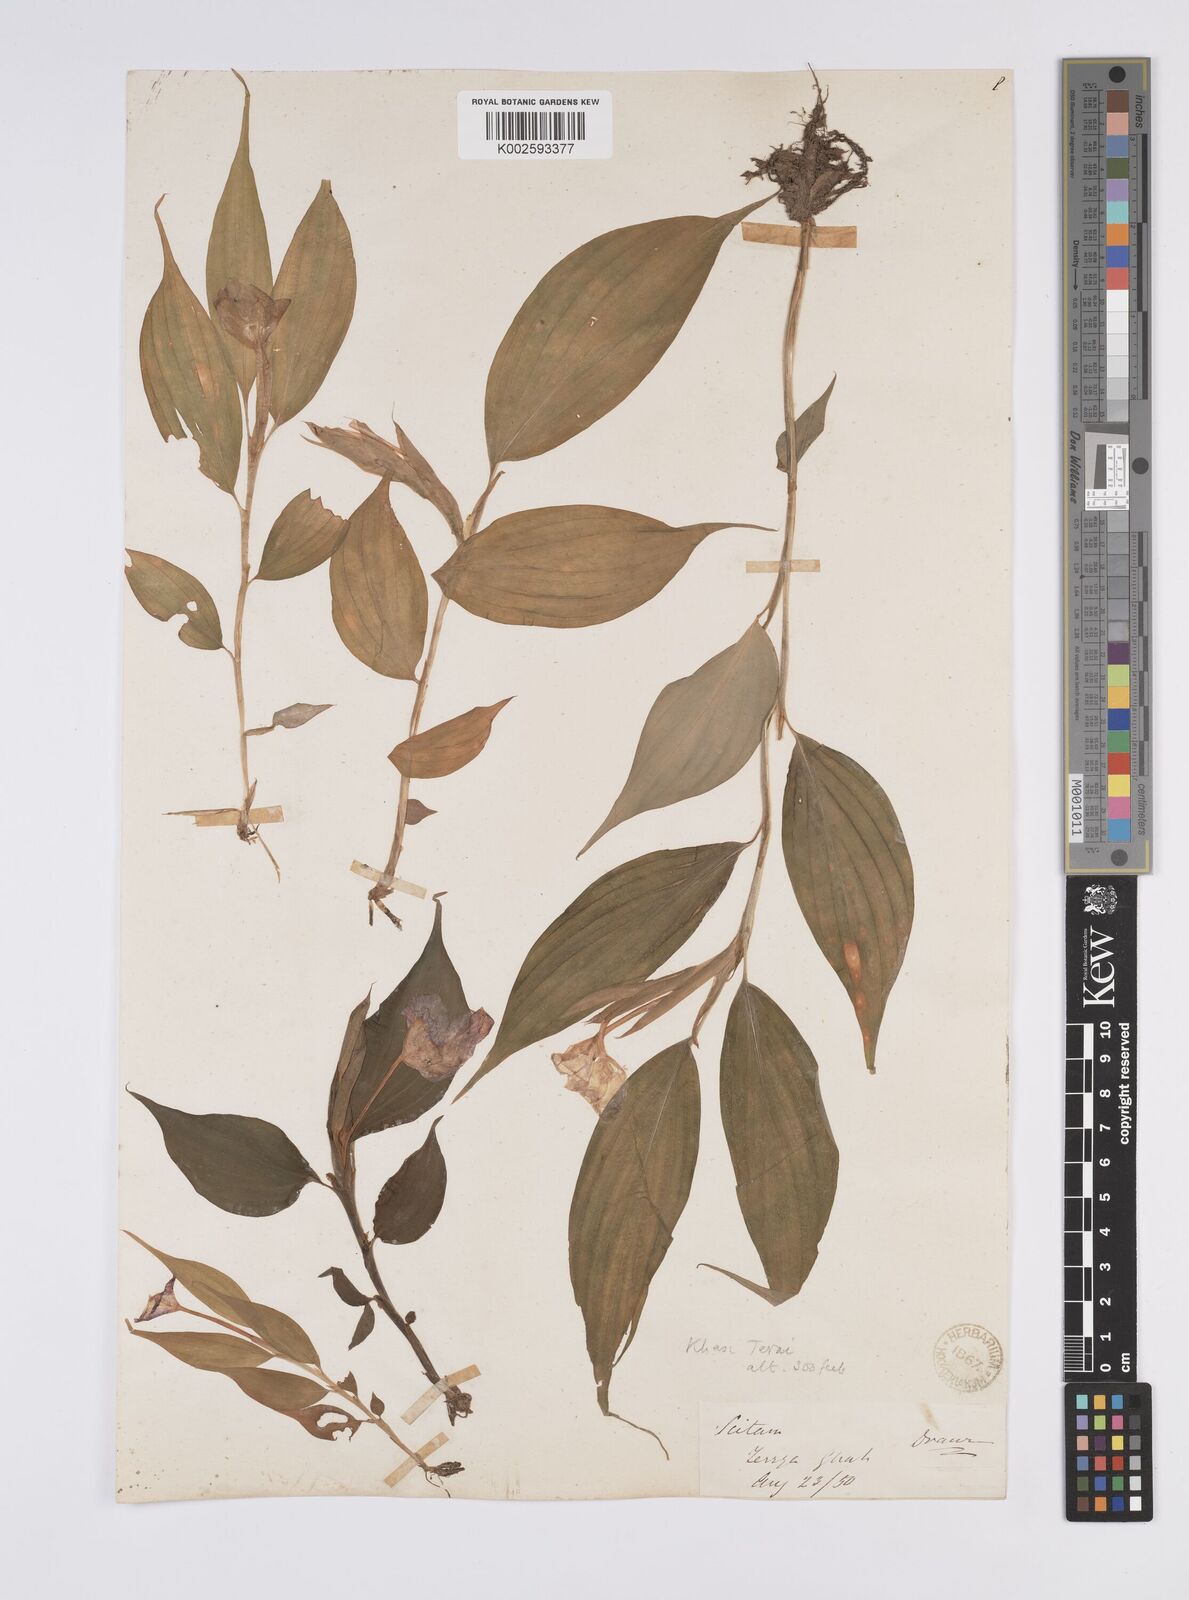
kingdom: Plantae
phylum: Tracheophyta
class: Liliopsida
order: Zingiberales
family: Zingiberaceae
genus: Caulokaempferia
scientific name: Caulokaempferia secunda
